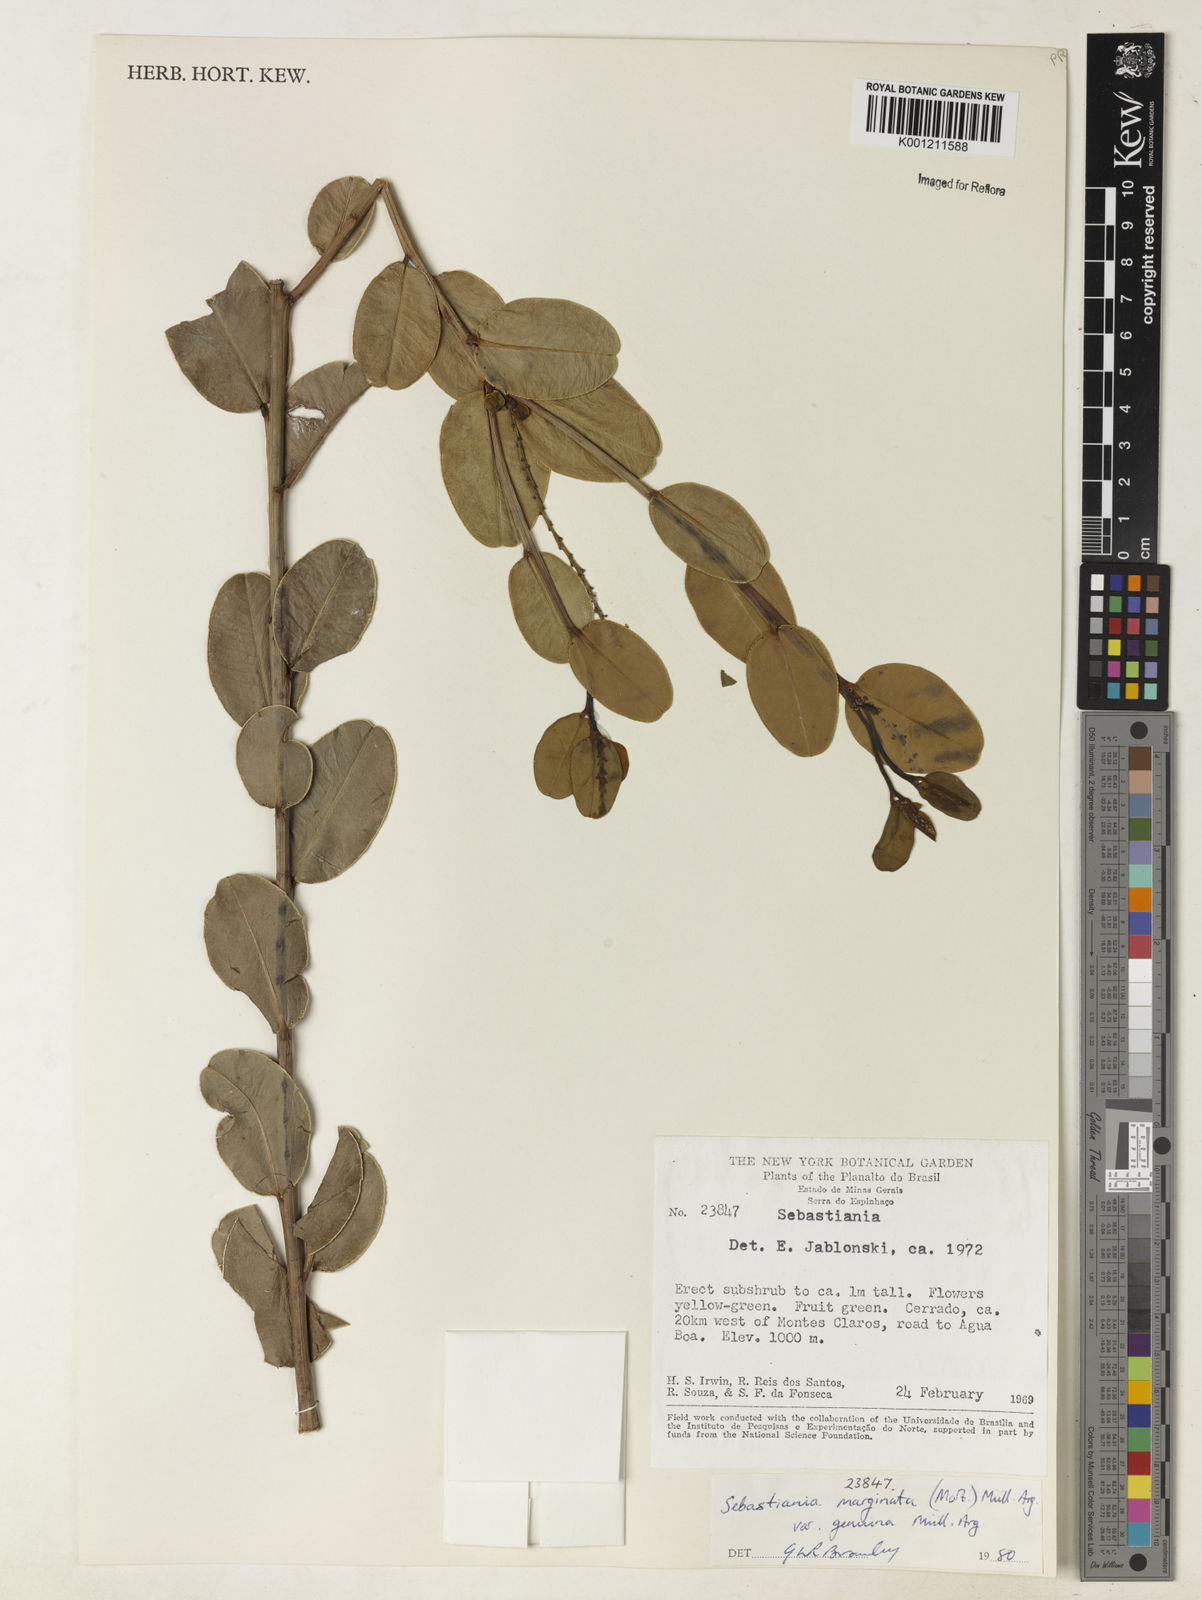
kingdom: Plantae
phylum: Tracheophyta
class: Magnoliopsida
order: Malpighiales
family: Euphorbiaceae
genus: Microstachys
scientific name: Microstachys
